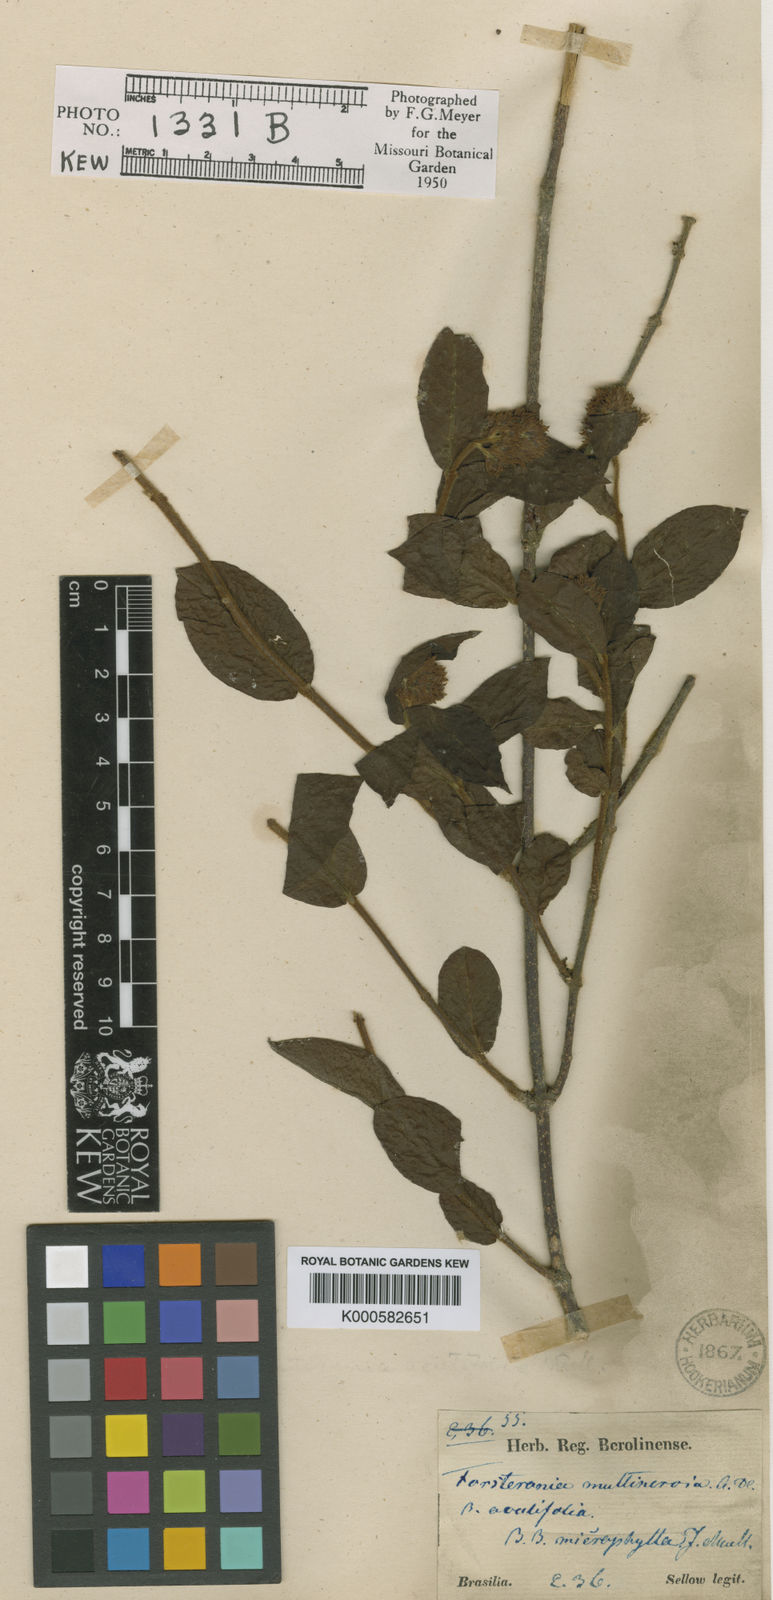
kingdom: Plantae
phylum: Tracheophyta
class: Magnoliopsida
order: Gentianales
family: Apocynaceae
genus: Forsteronia
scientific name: Forsteronia velloziana
